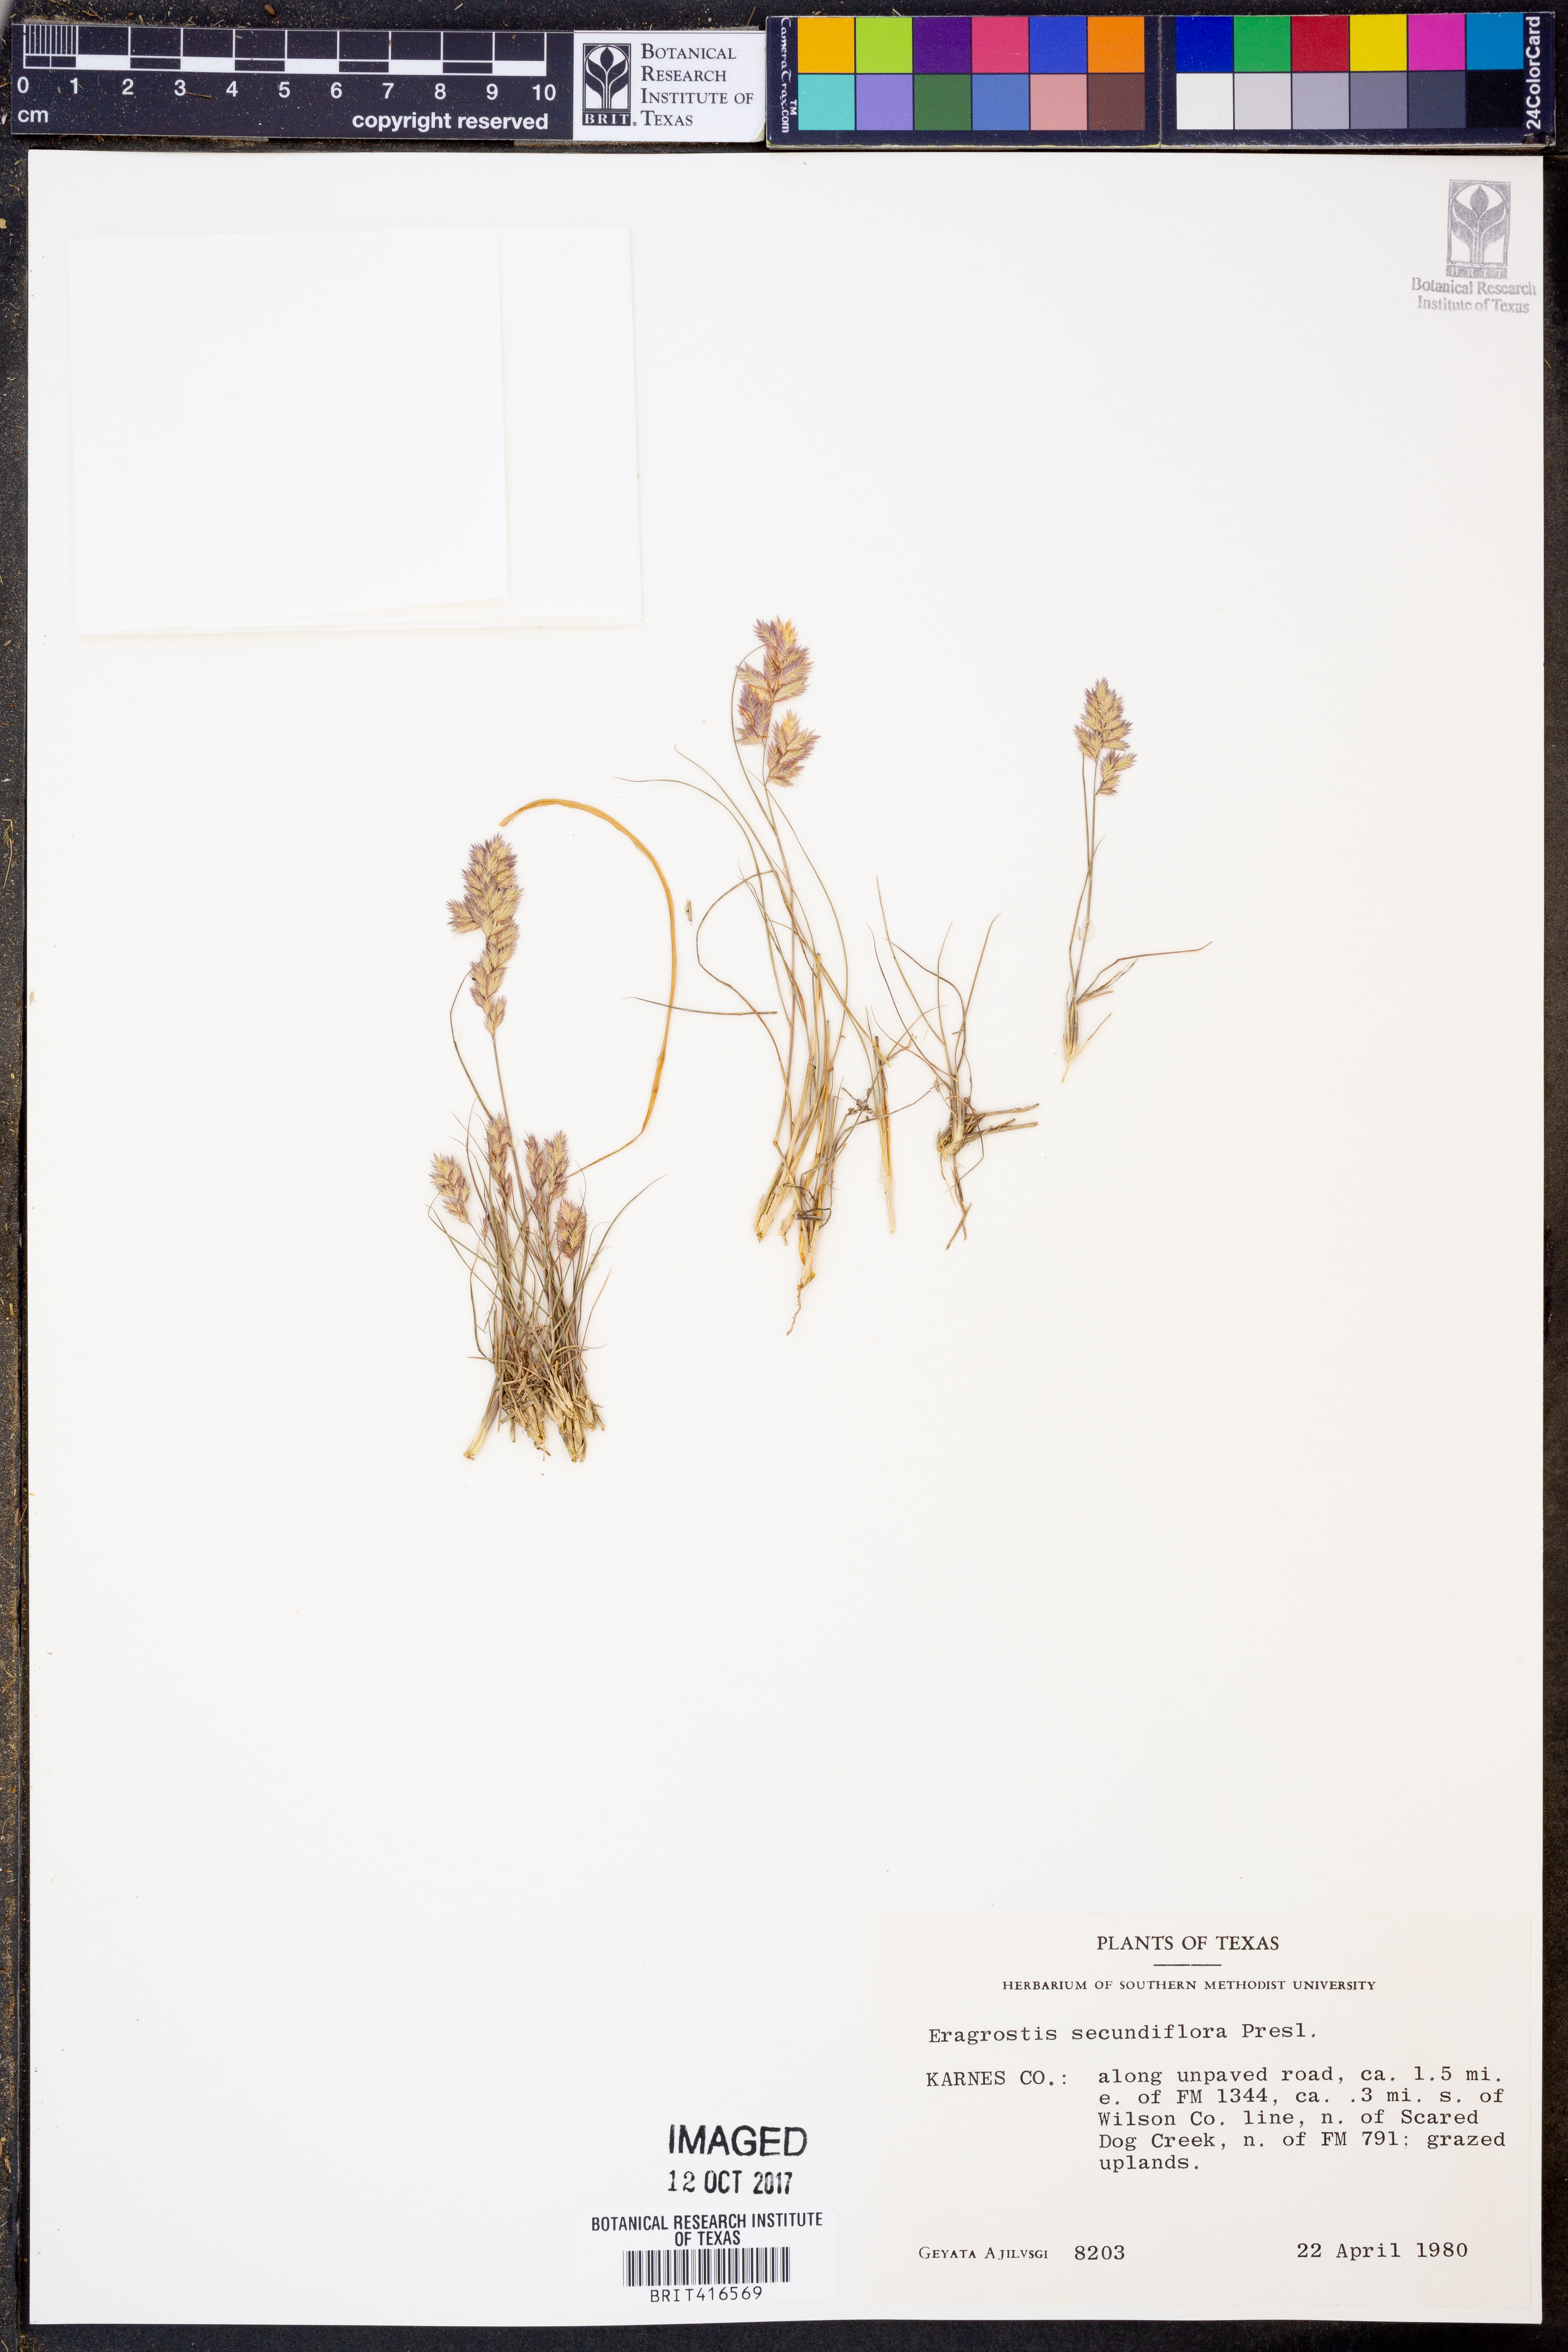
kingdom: Plantae
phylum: Tracheophyta
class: Liliopsida
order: Poales
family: Poaceae
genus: Eragrostis
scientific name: Eragrostis secundiflora
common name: Red love grass
